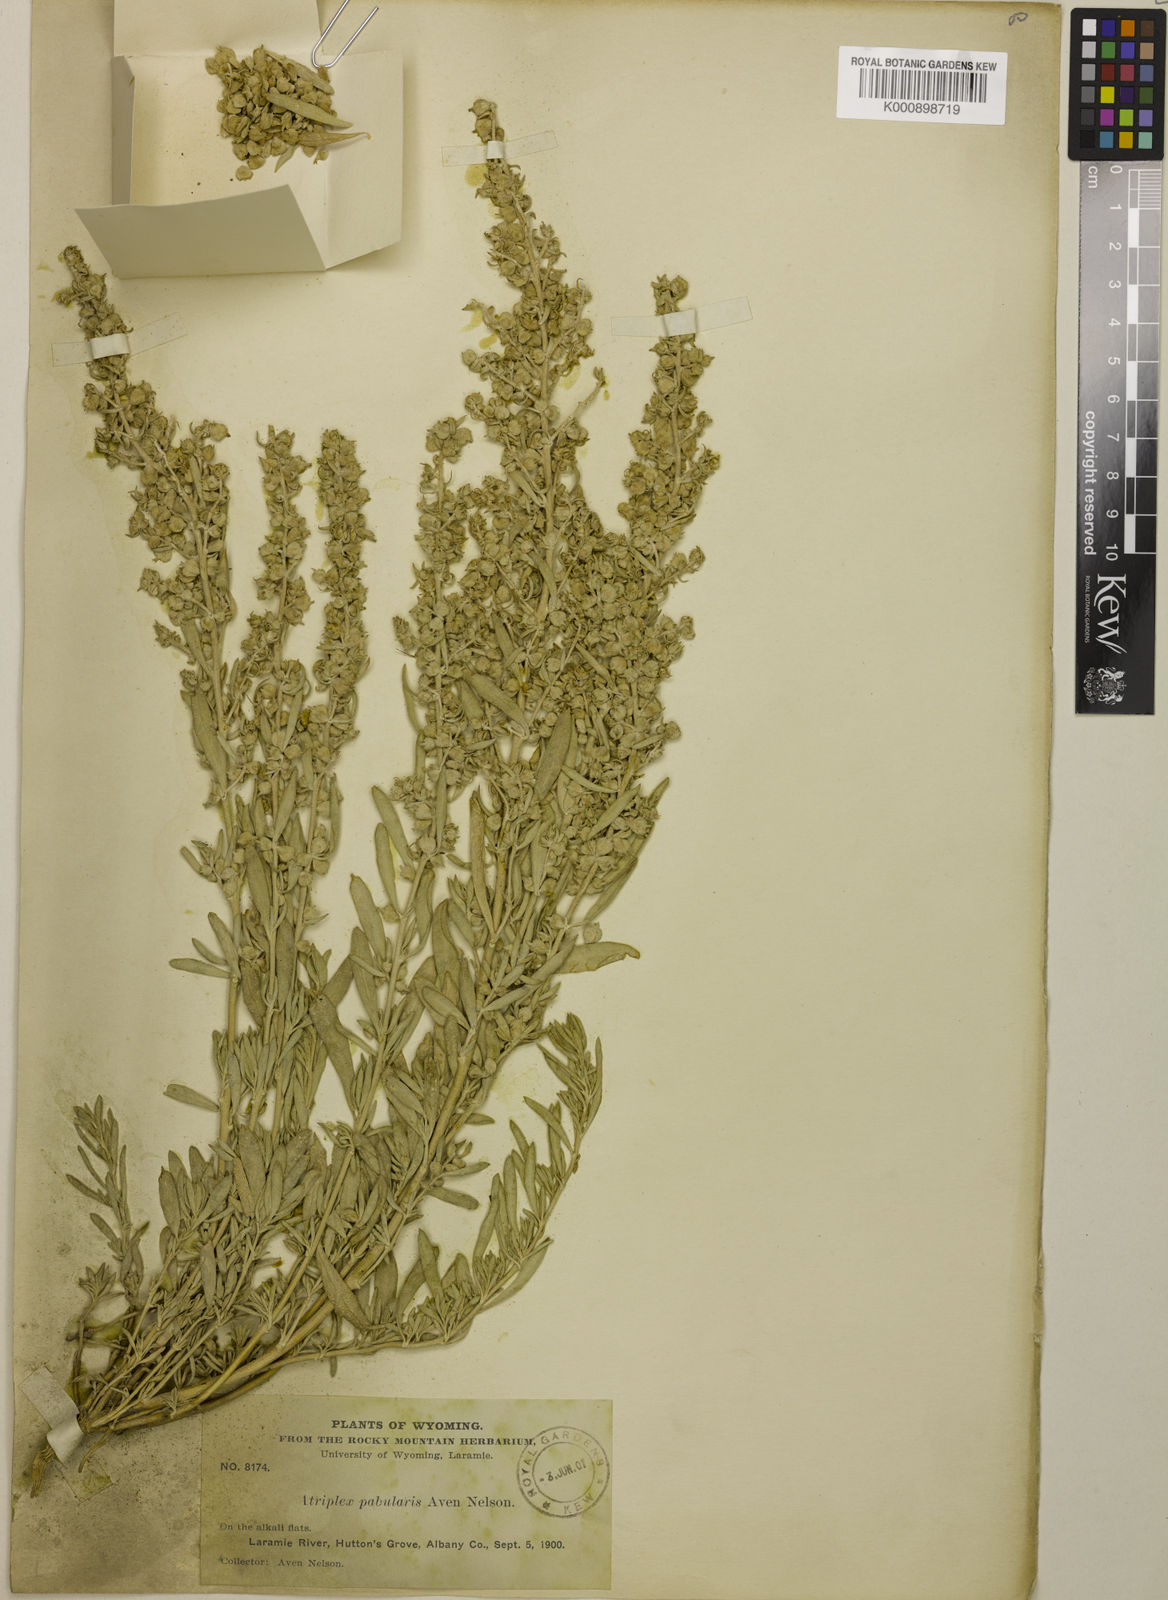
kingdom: Plantae
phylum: Tracheophyta
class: Magnoliopsida
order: Caryophyllales
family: Amaranthaceae
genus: Atriplex
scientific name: Atriplex pabularis
